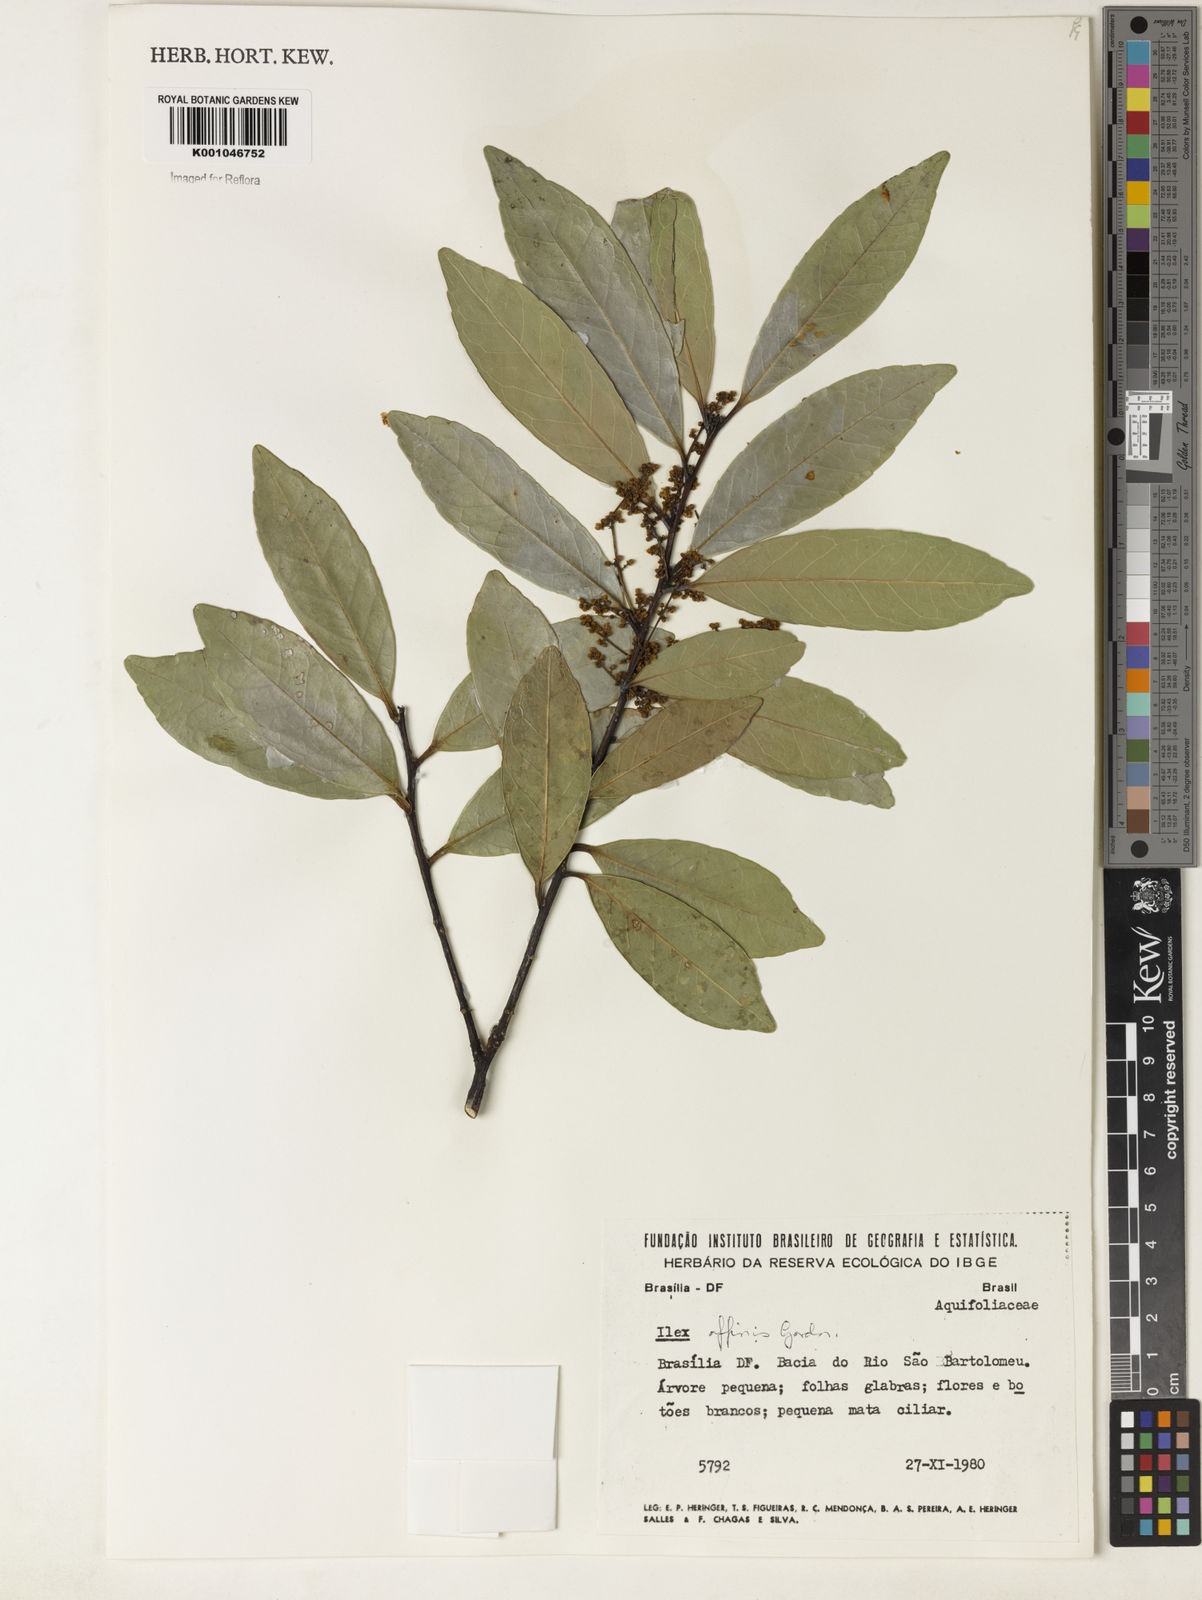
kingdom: Plantae
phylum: Tracheophyta
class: Magnoliopsida
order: Aquifoliales
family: Aquifoliaceae
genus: Ilex
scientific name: Ilex affinis
